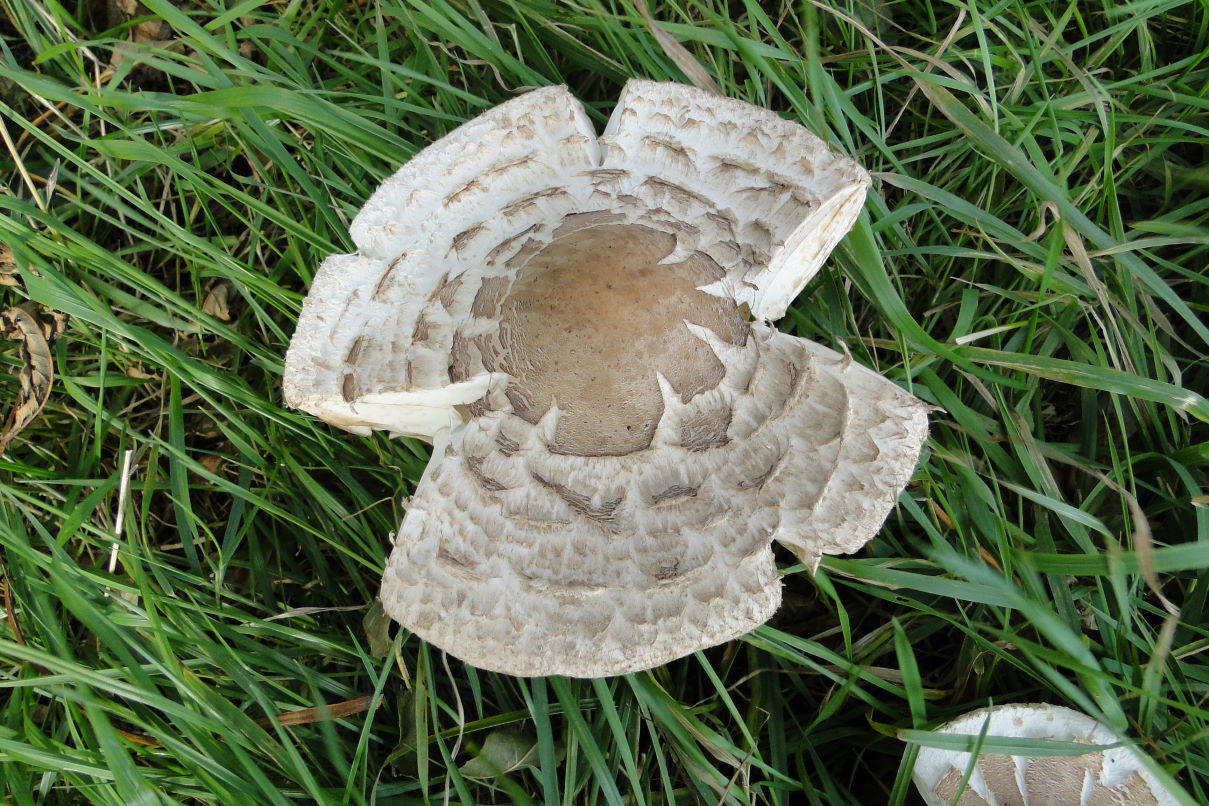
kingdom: Fungi
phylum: Basidiomycota
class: Agaricomycetes
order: Agaricales
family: Agaricaceae
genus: Chlorophyllum
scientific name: Chlorophyllum brunneum
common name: giftig rabarberhat
